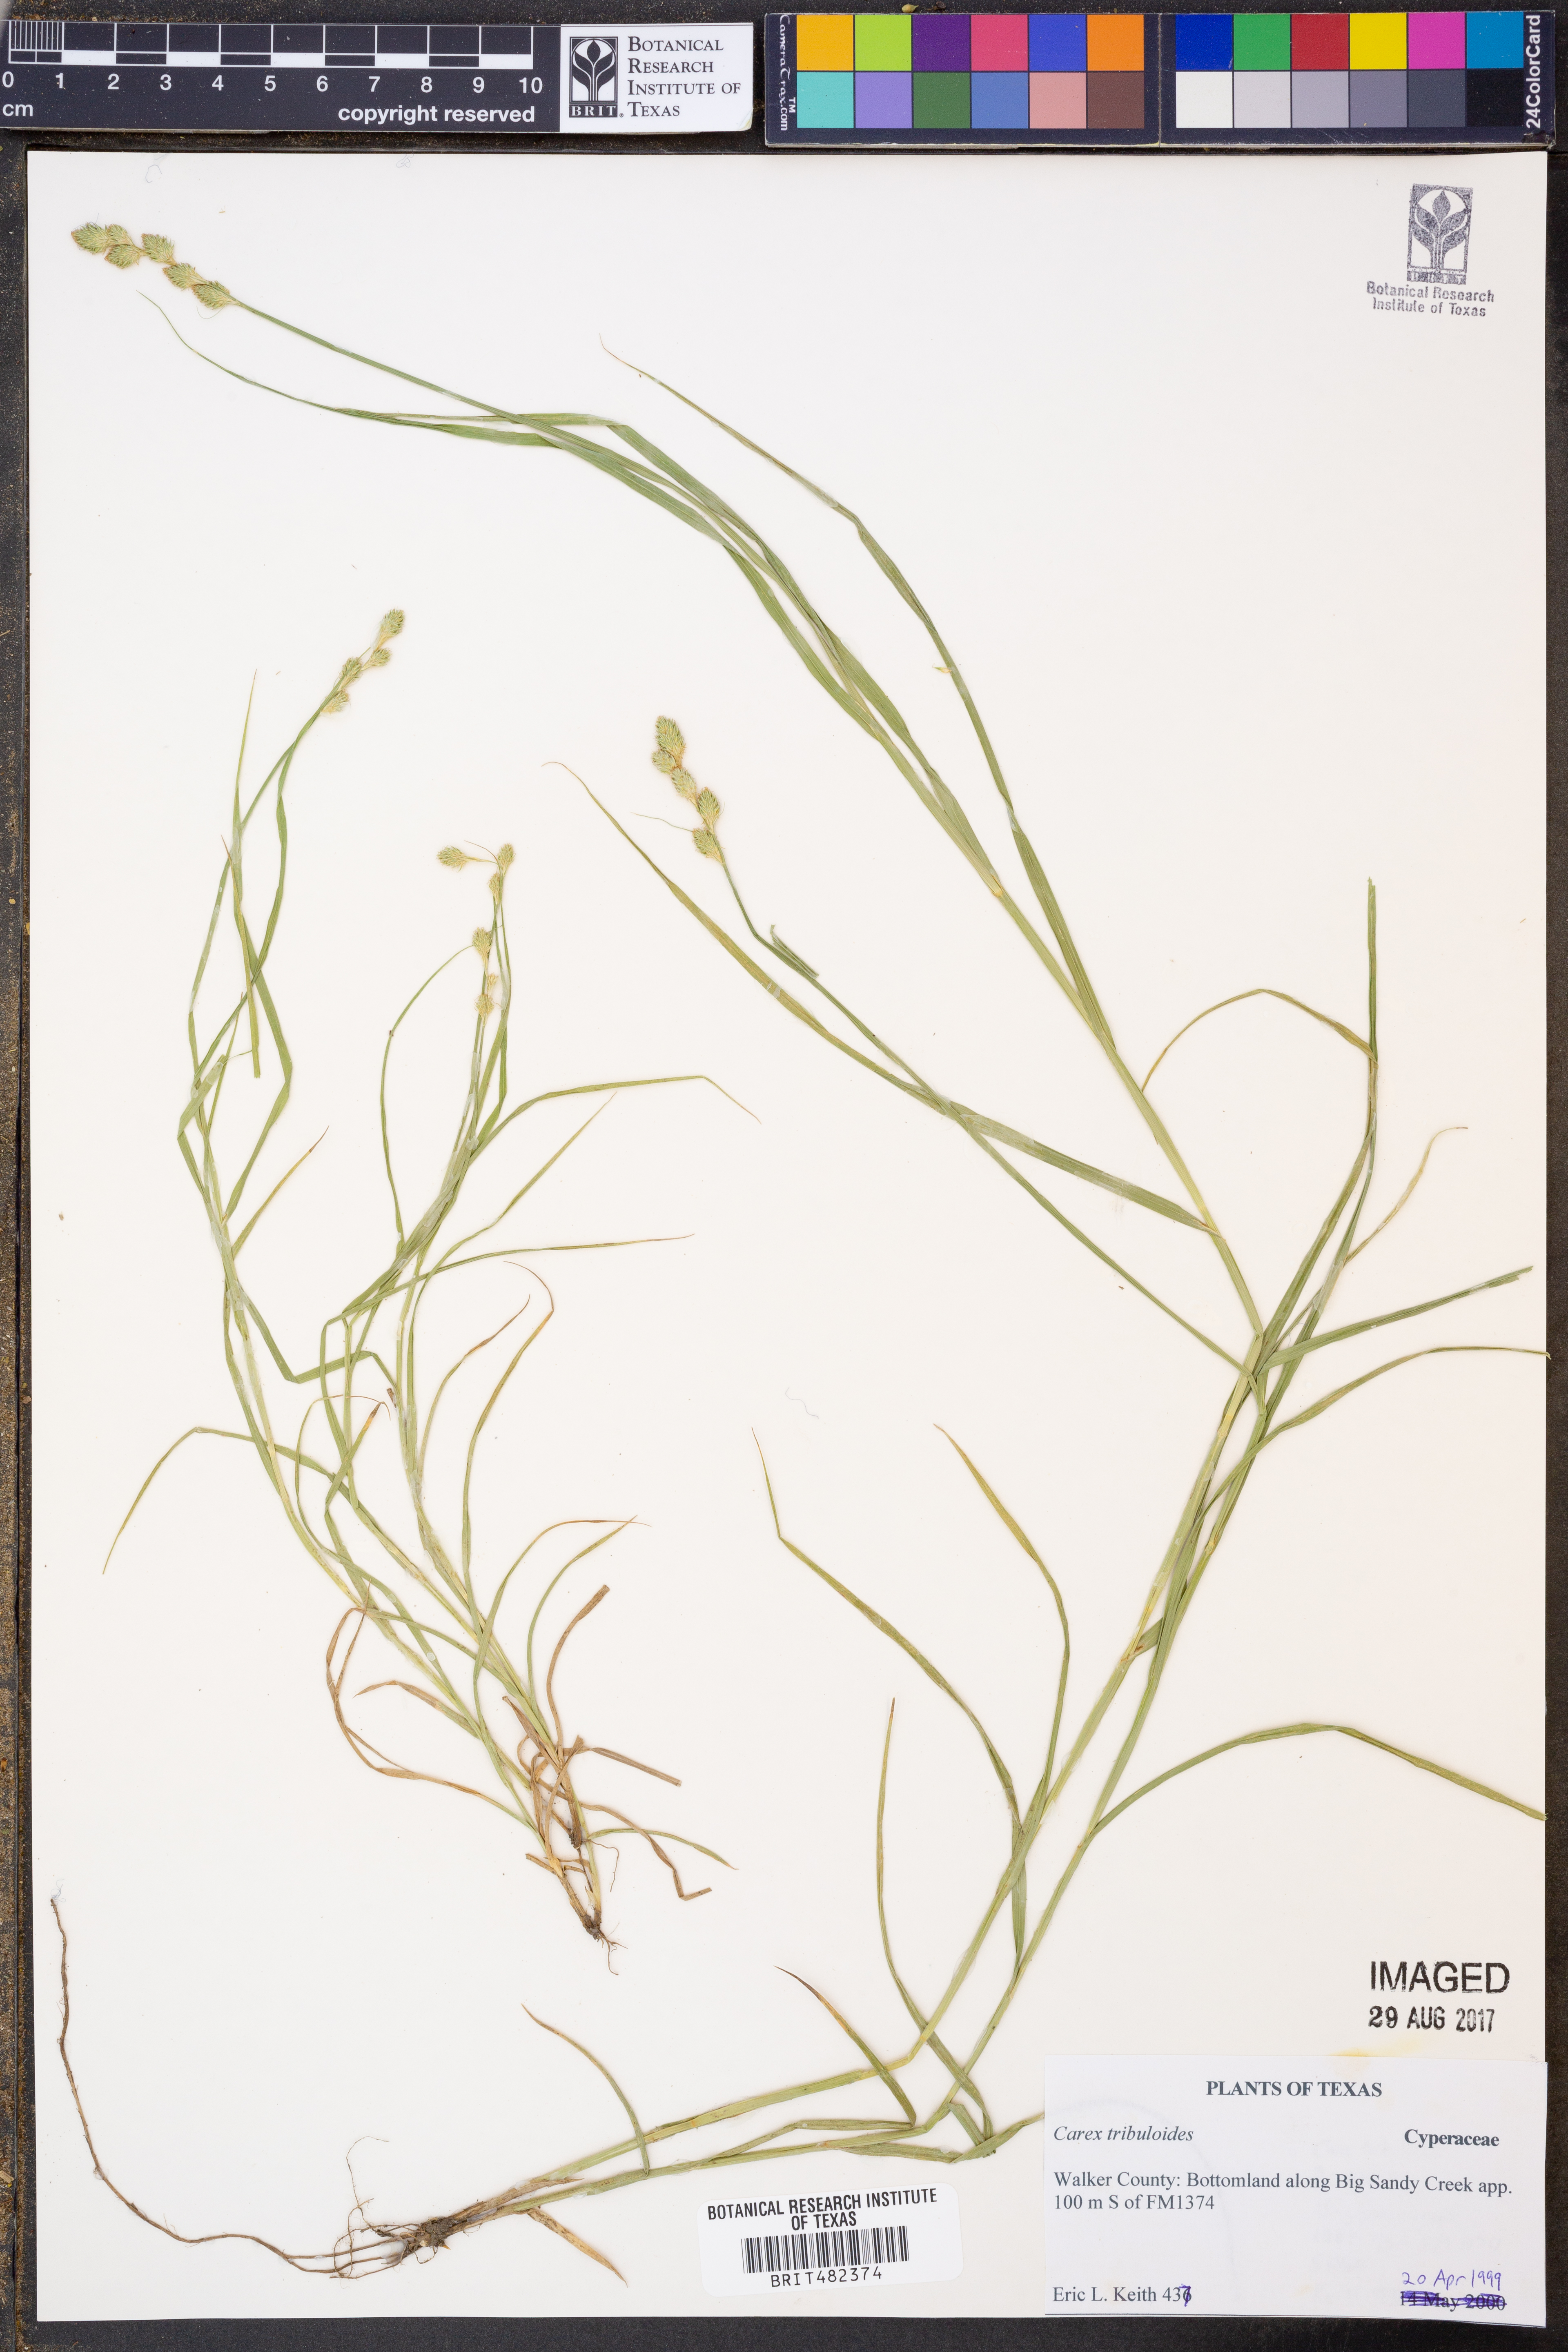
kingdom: Plantae
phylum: Tracheophyta
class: Liliopsida
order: Poales
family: Cyperaceae
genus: Carex
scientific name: Carex tribuloides
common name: Blunt broom sedge
